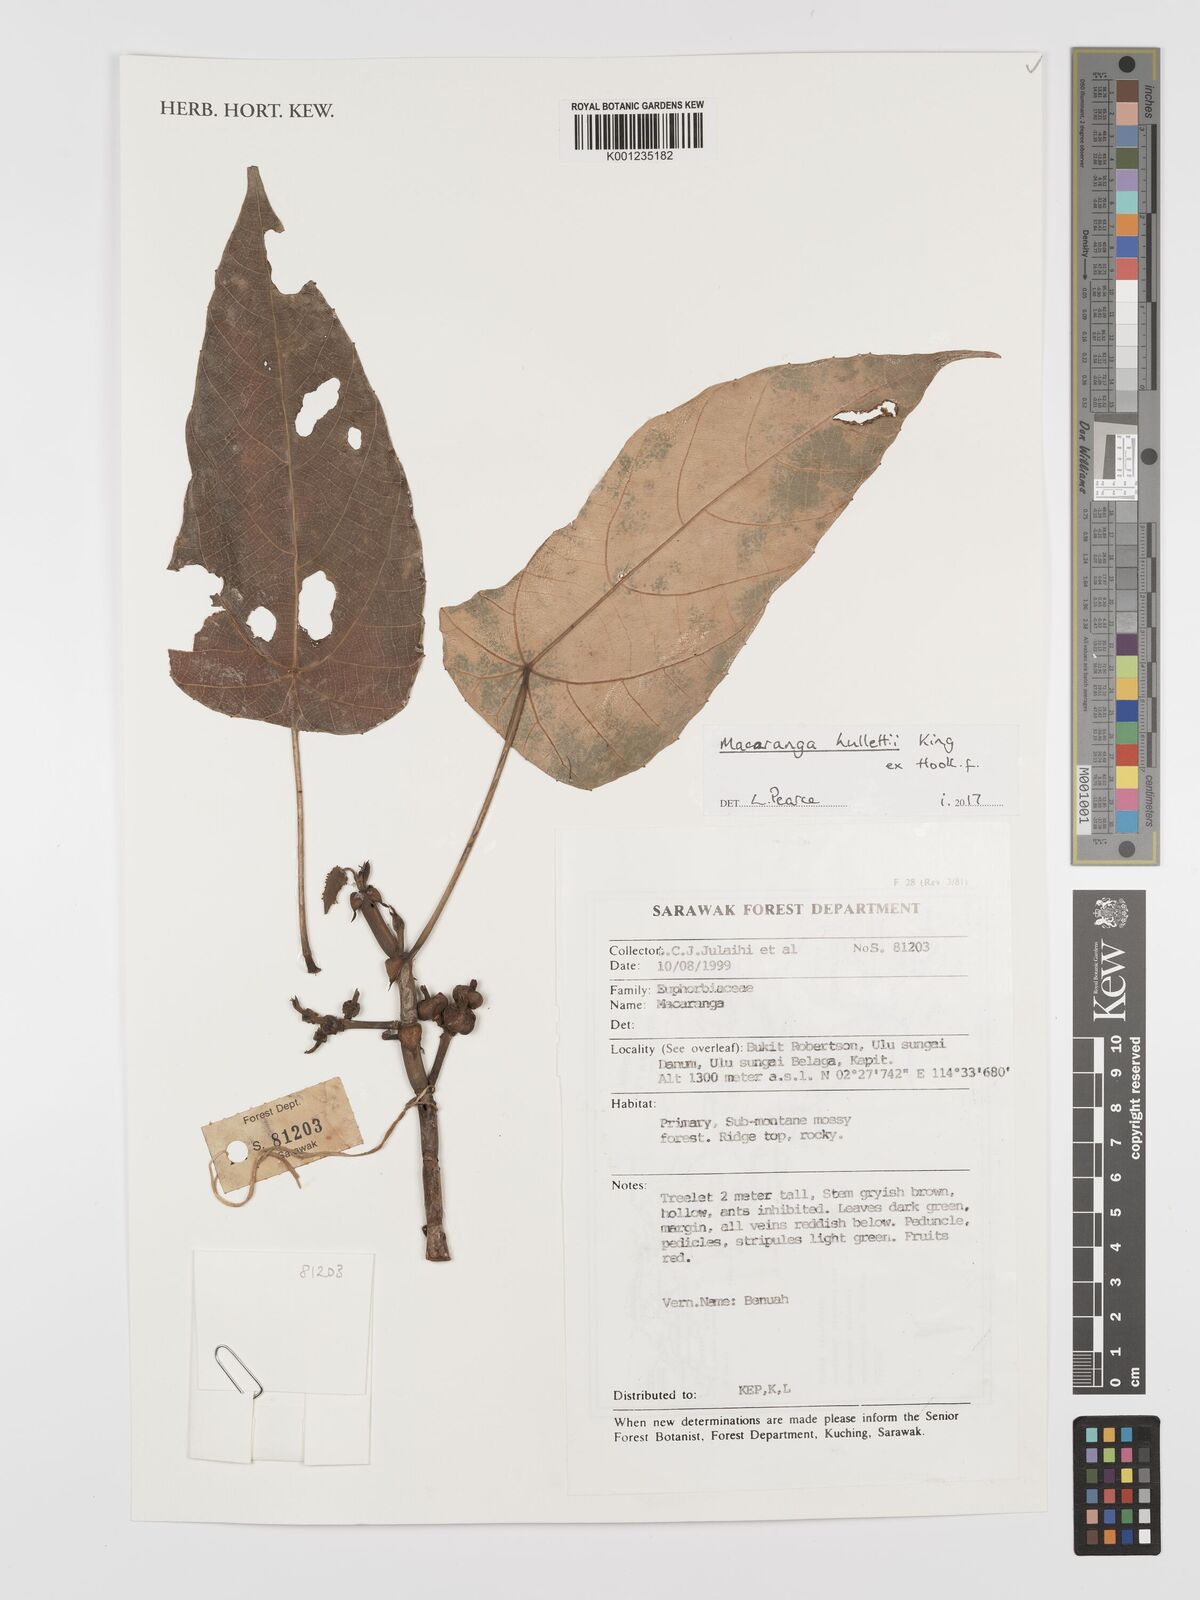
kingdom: Plantae
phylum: Tracheophyta
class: Magnoliopsida
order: Malpighiales
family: Euphorbiaceae
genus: Macaranga
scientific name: Macaranga hullettii
